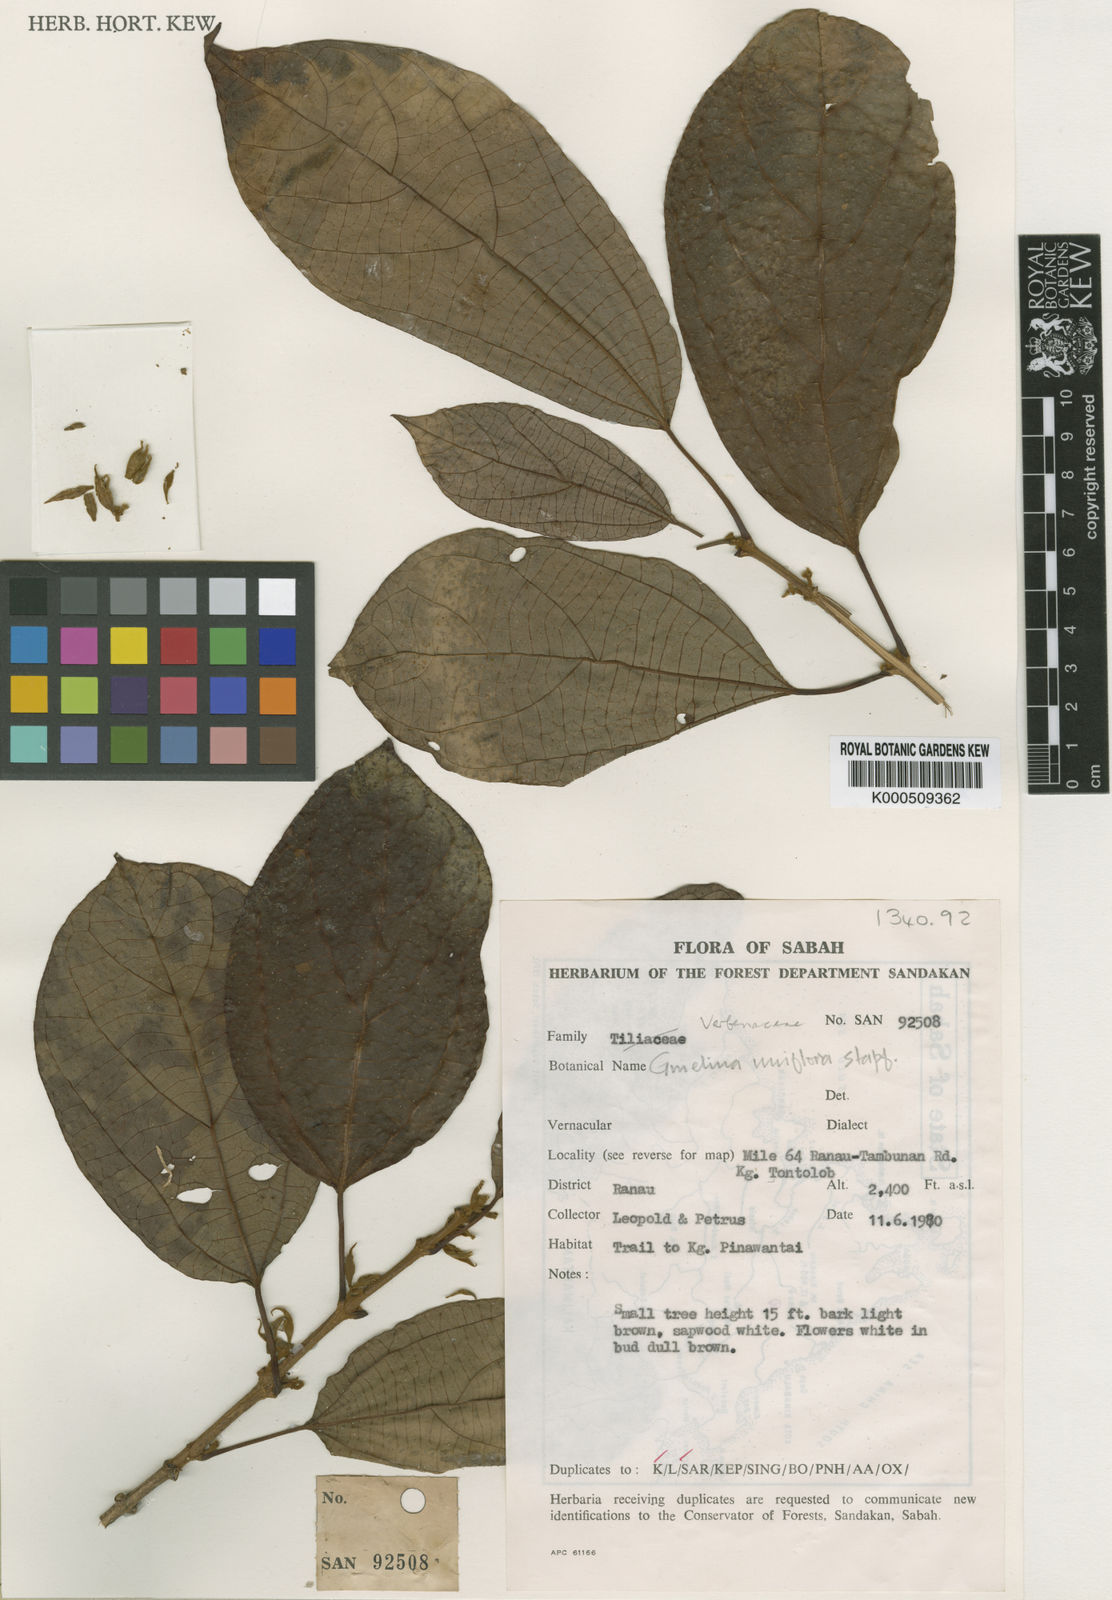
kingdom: Plantae
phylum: Tracheophyta
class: Magnoliopsida
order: Lamiales
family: Lamiaceae
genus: Gmelina
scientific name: Gmelina uniflora
